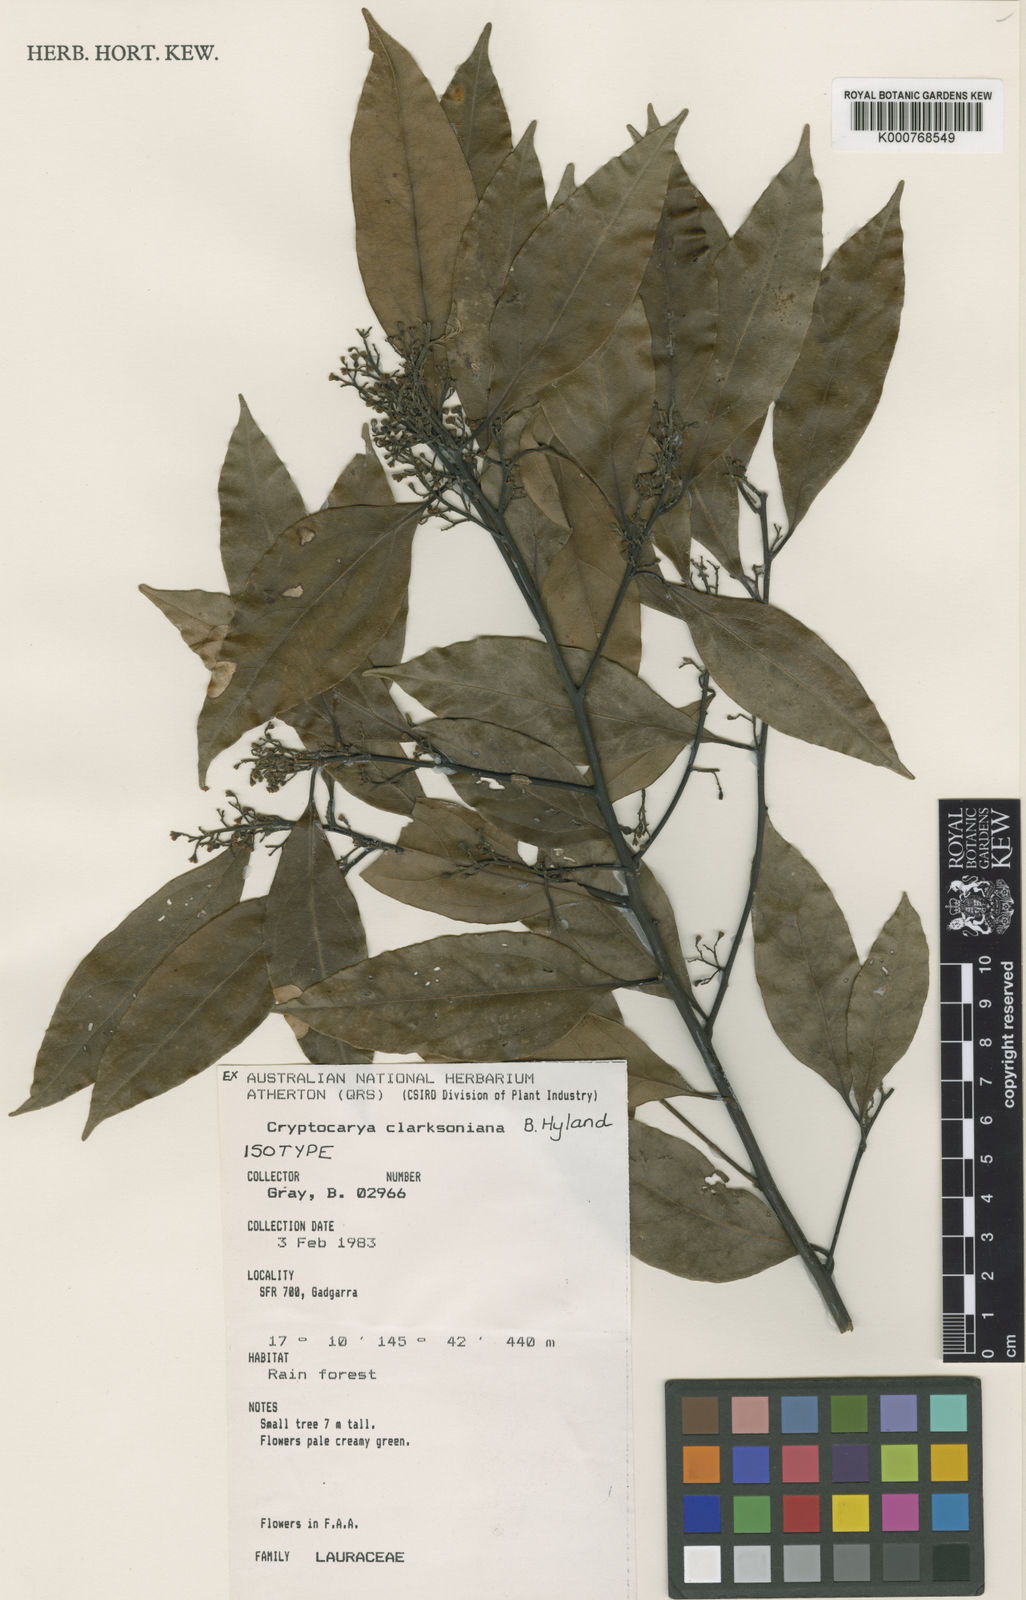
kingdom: Plantae
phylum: Tracheophyta
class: Magnoliopsida
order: Laurales
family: Lauraceae
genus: Cryptocarya
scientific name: Cryptocarya clarksoniana
